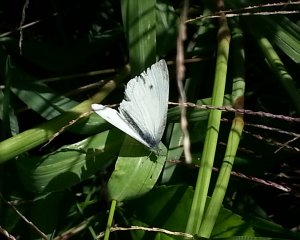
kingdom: Animalia
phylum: Arthropoda
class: Insecta
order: Lepidoptera
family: Pieridae
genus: Pieris
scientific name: Pieris rapae
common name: Cabbage White
